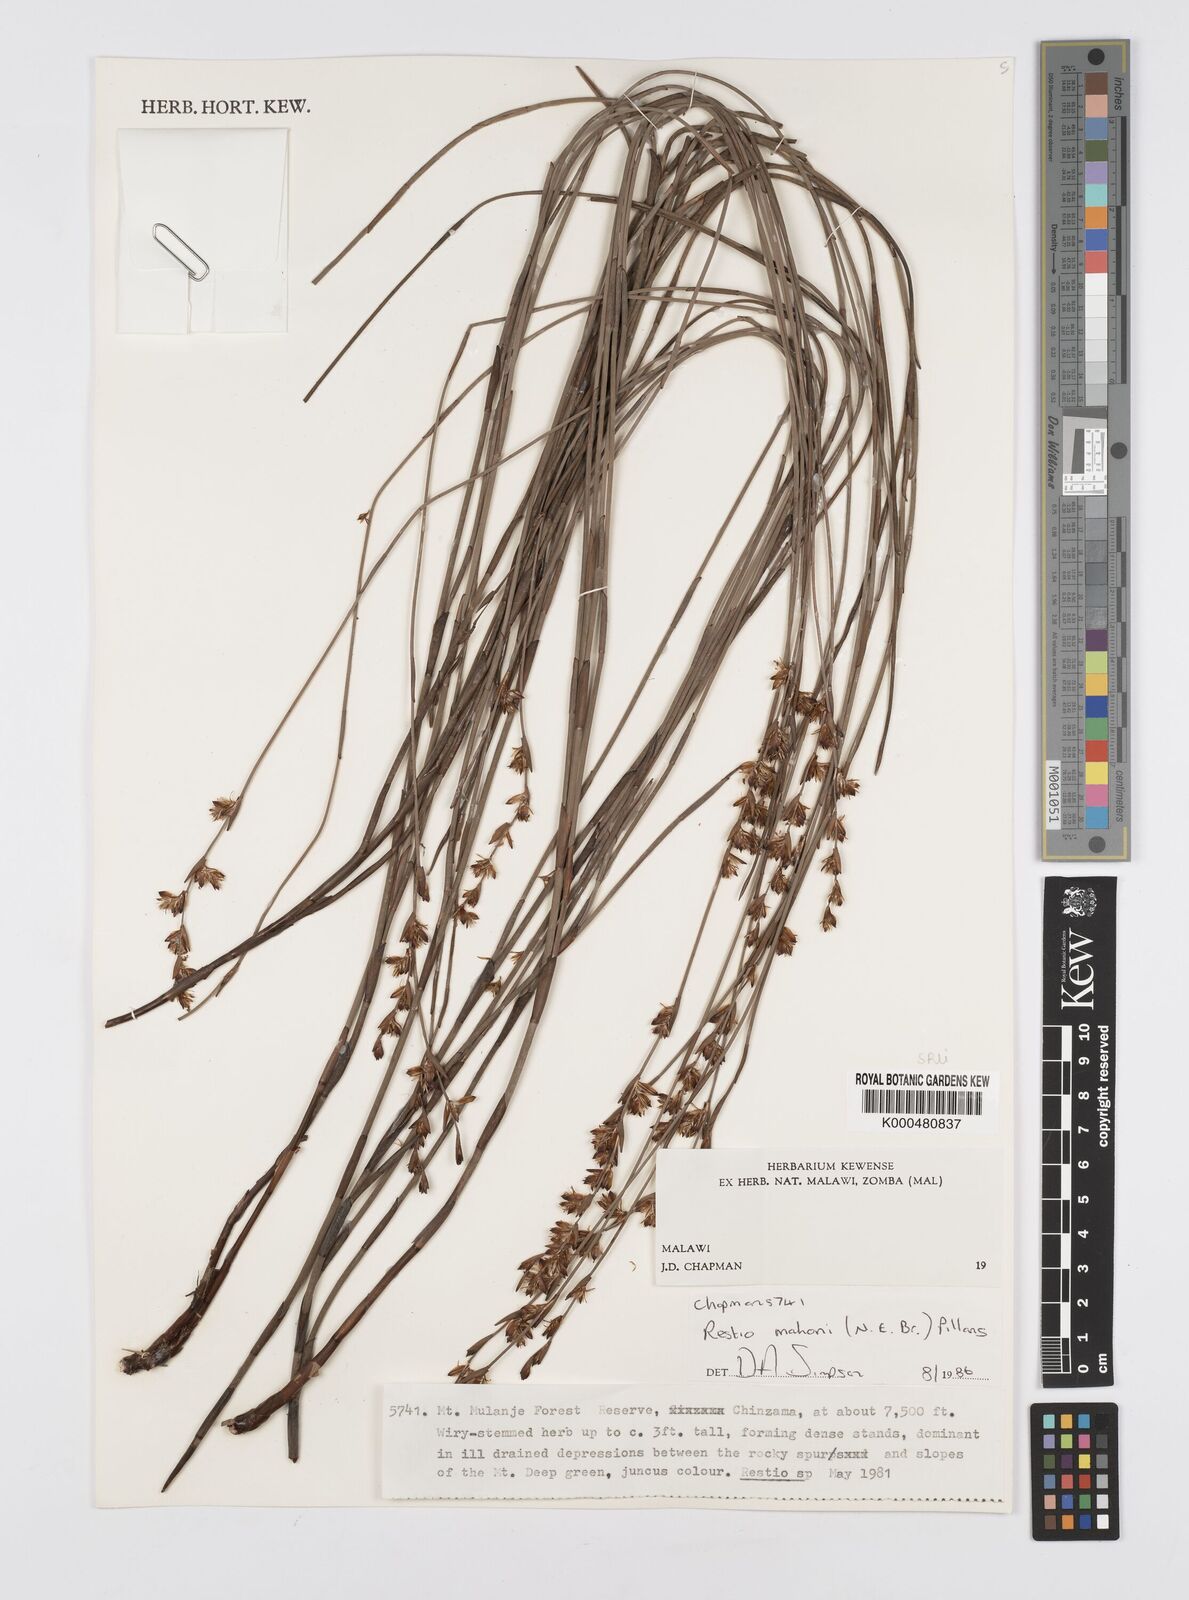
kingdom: Plantae
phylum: Tracheophyta
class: Liliopsida
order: Poales
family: Restionaceae
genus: Platycaulos
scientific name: Platycaulos mahonii
